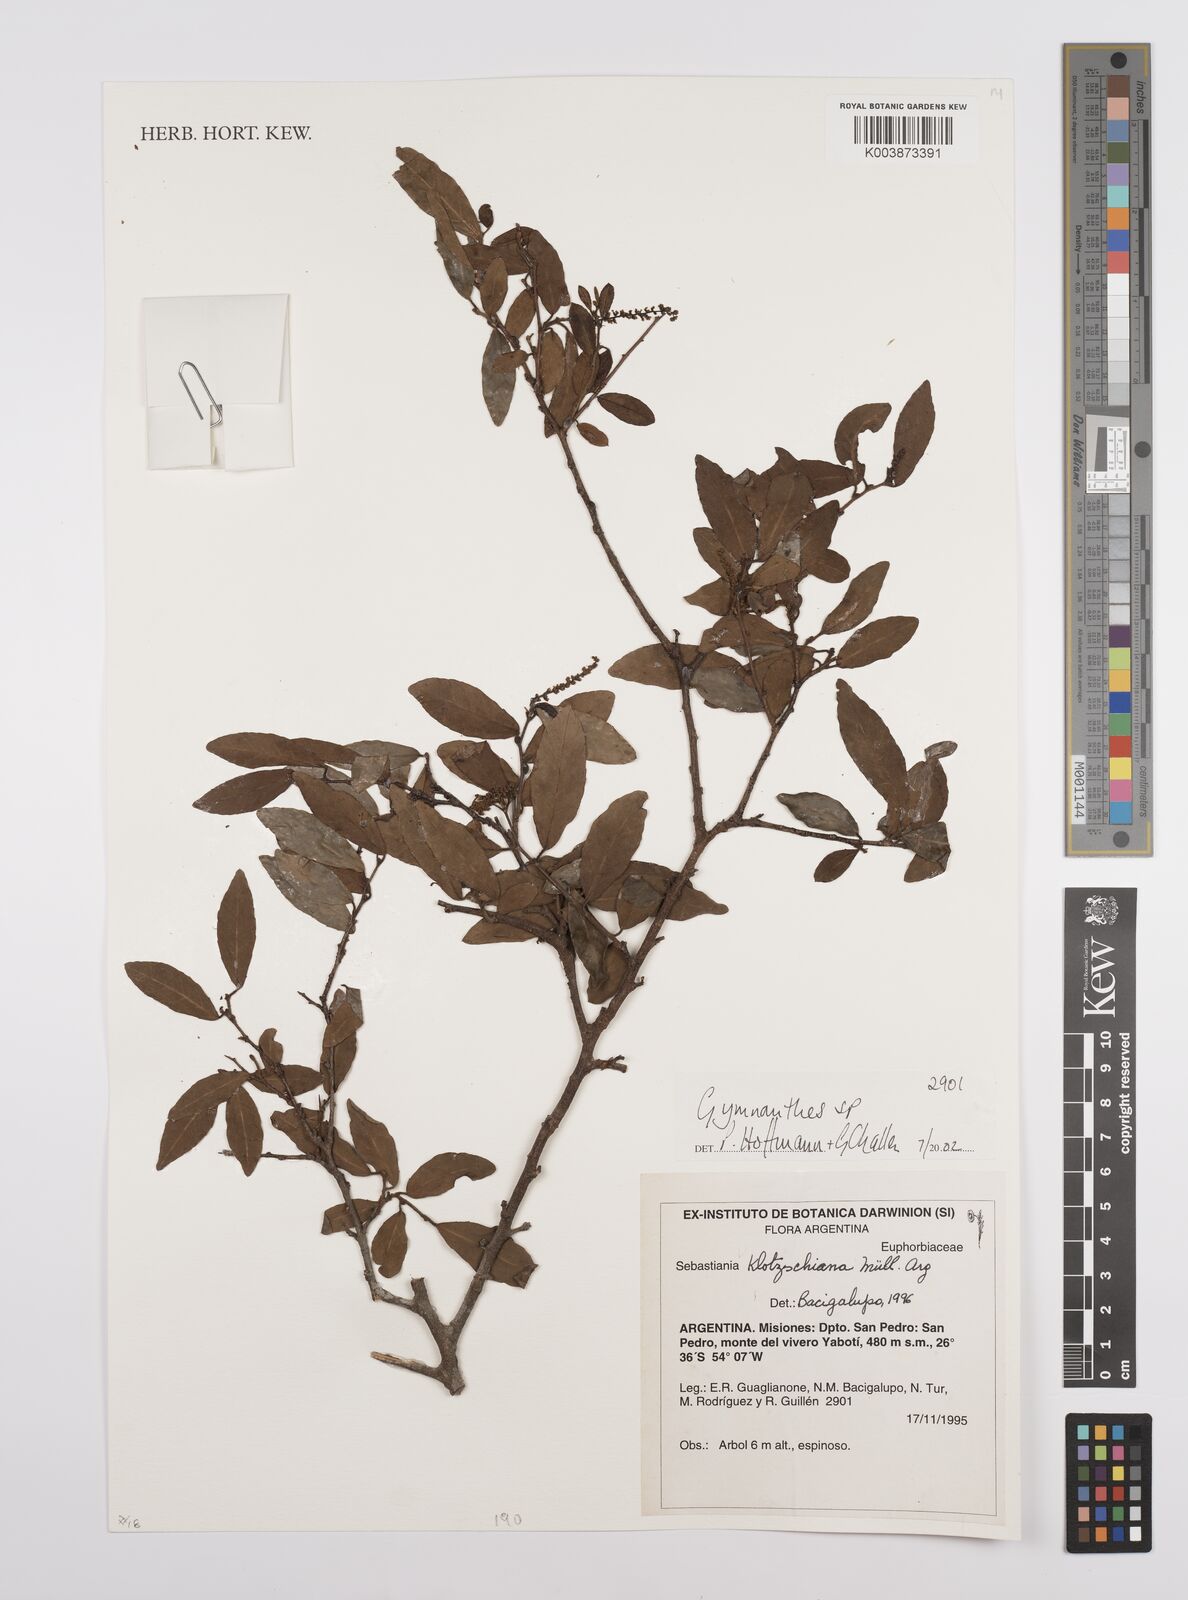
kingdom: Plantae
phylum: Tracheophyta
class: Magnoliopsida
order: Malpighiales
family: Euphorbiaceae
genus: Gymnanthes
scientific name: Gymnanthes
